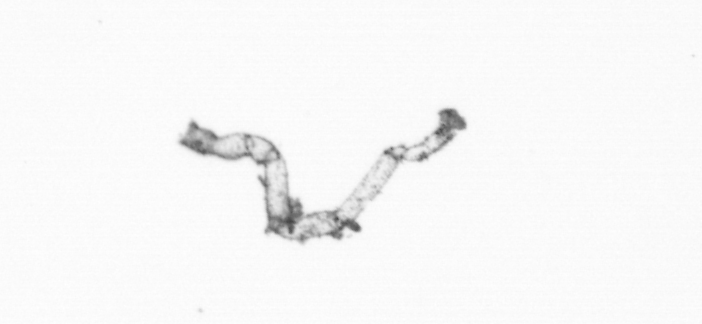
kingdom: Chromista
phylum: Ochrophyta
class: Bacillariophyceae
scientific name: Bacillariophyceae
